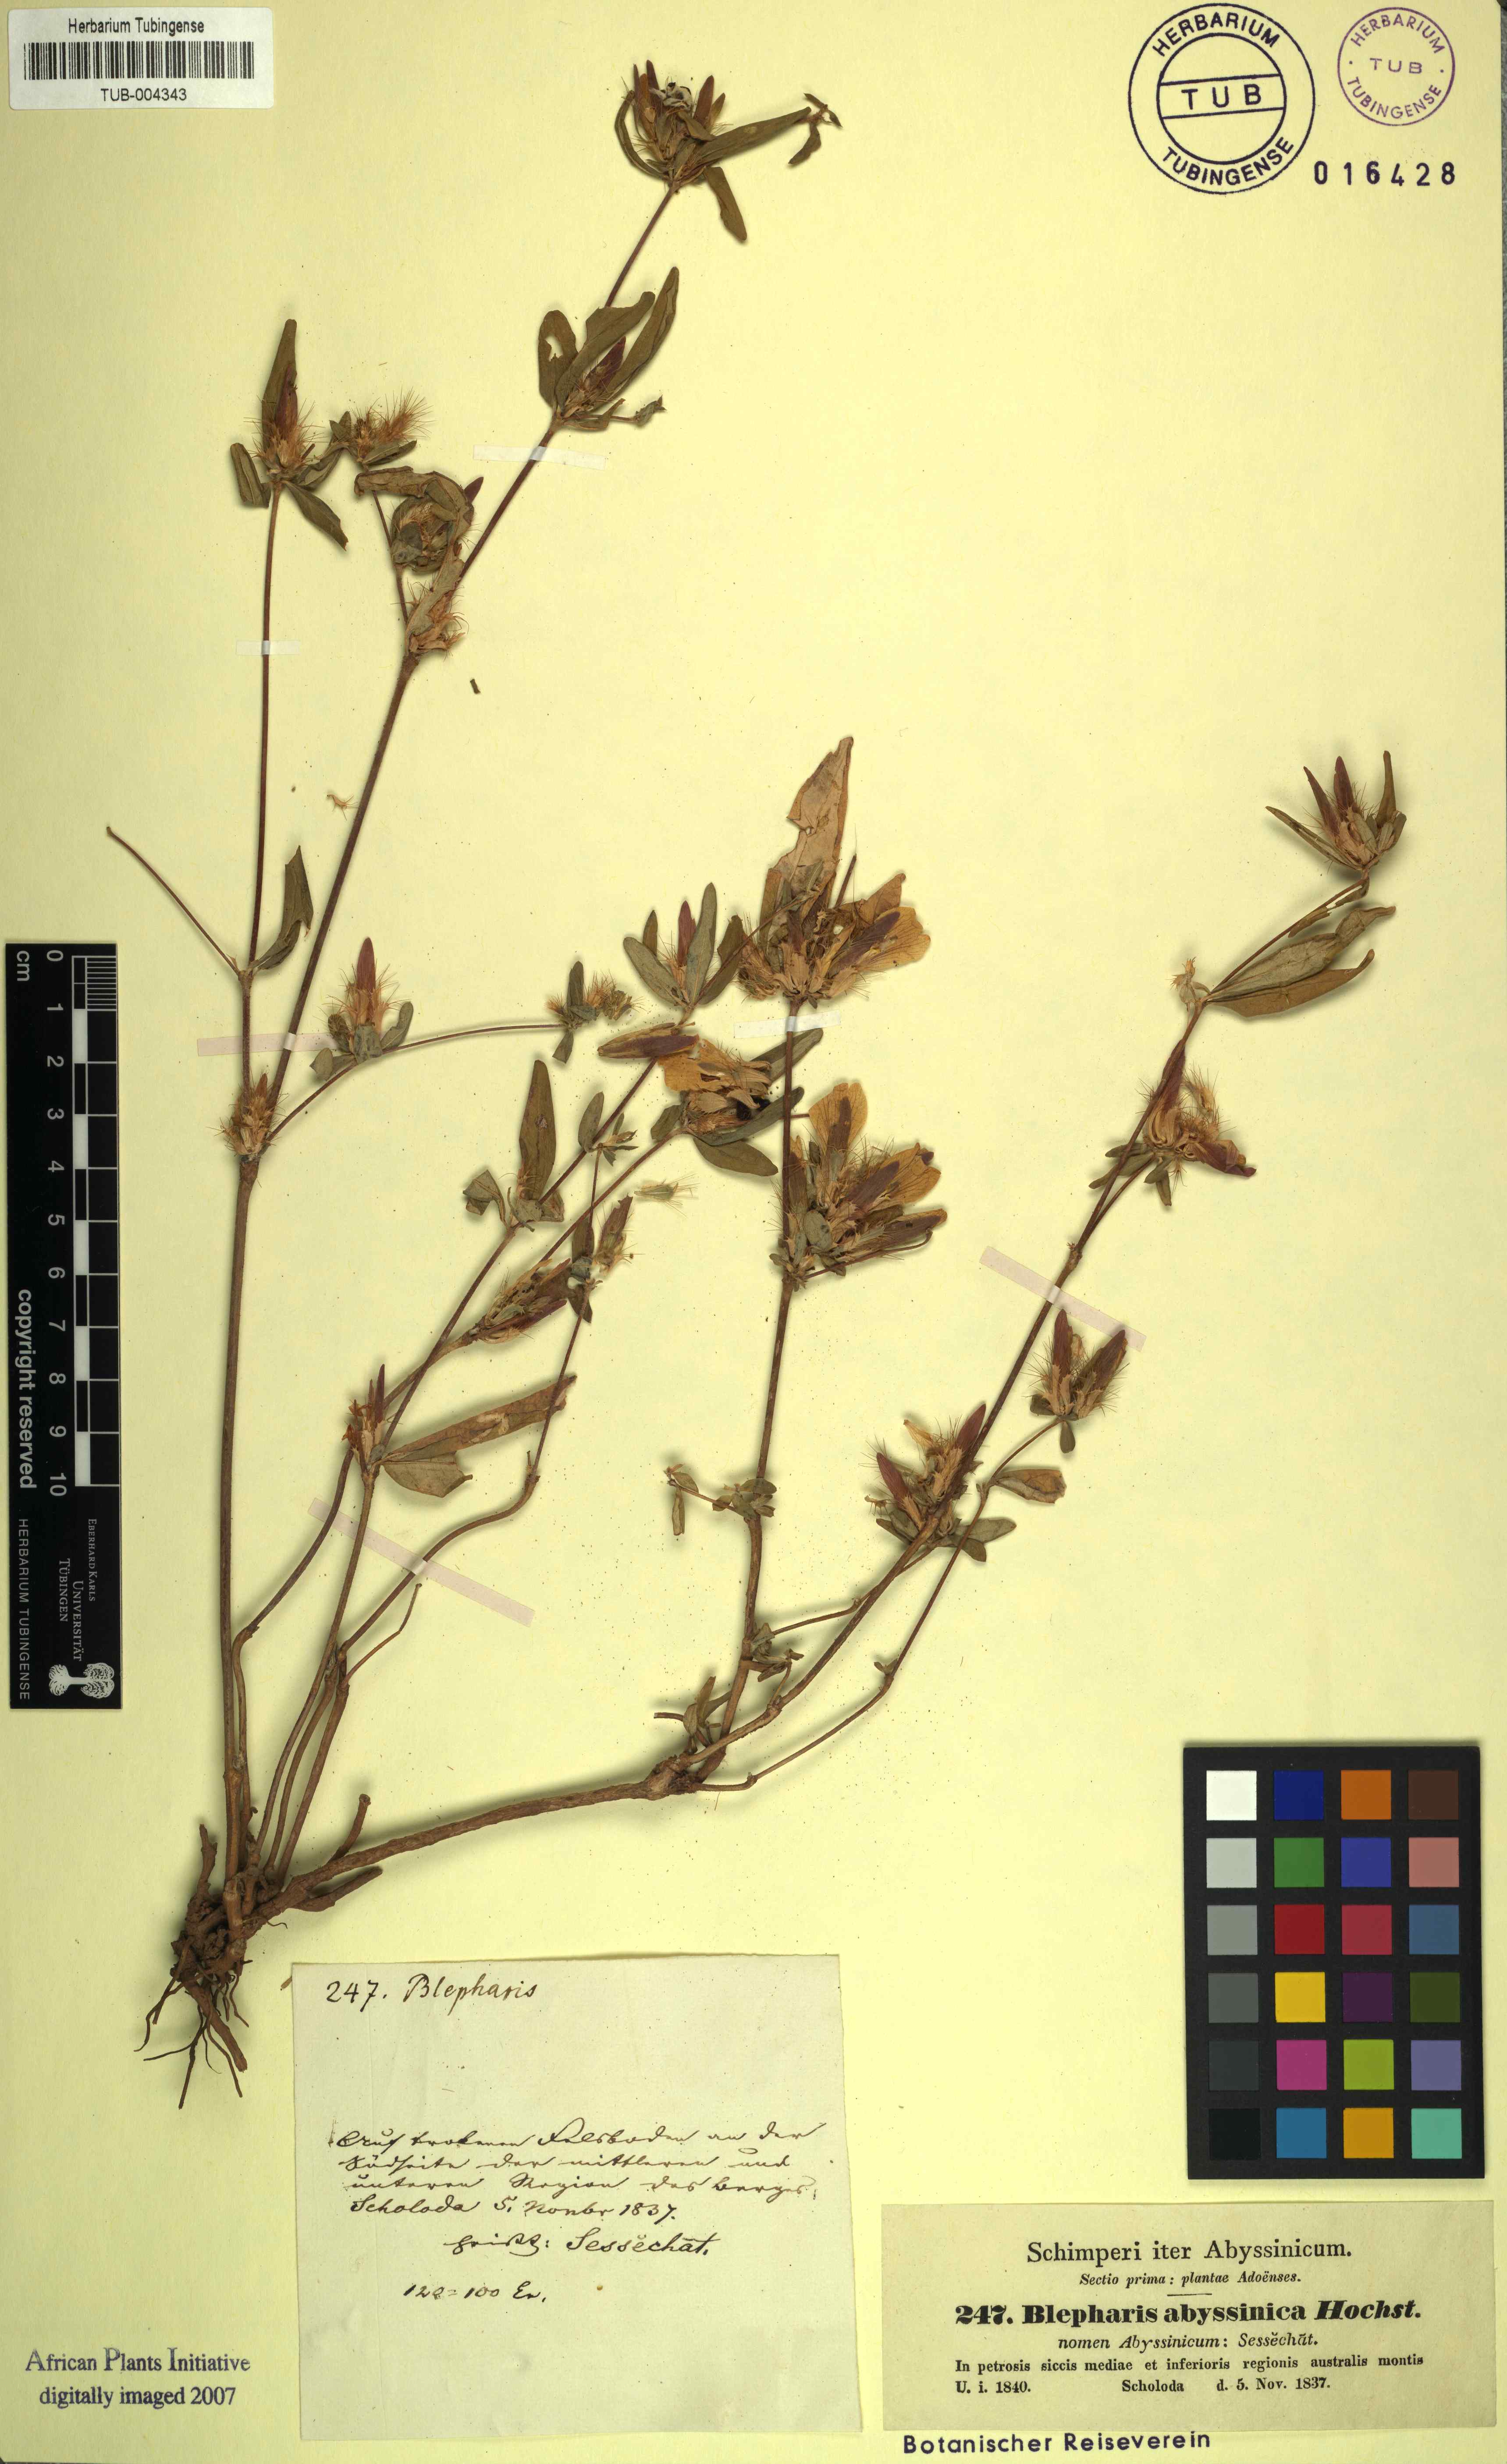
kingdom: Plantae
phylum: Tracheophyta
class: Magnoliopsida
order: Lamiales
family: Acanthaceae
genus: Blepharis
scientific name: Blepharis maderaspatensis
